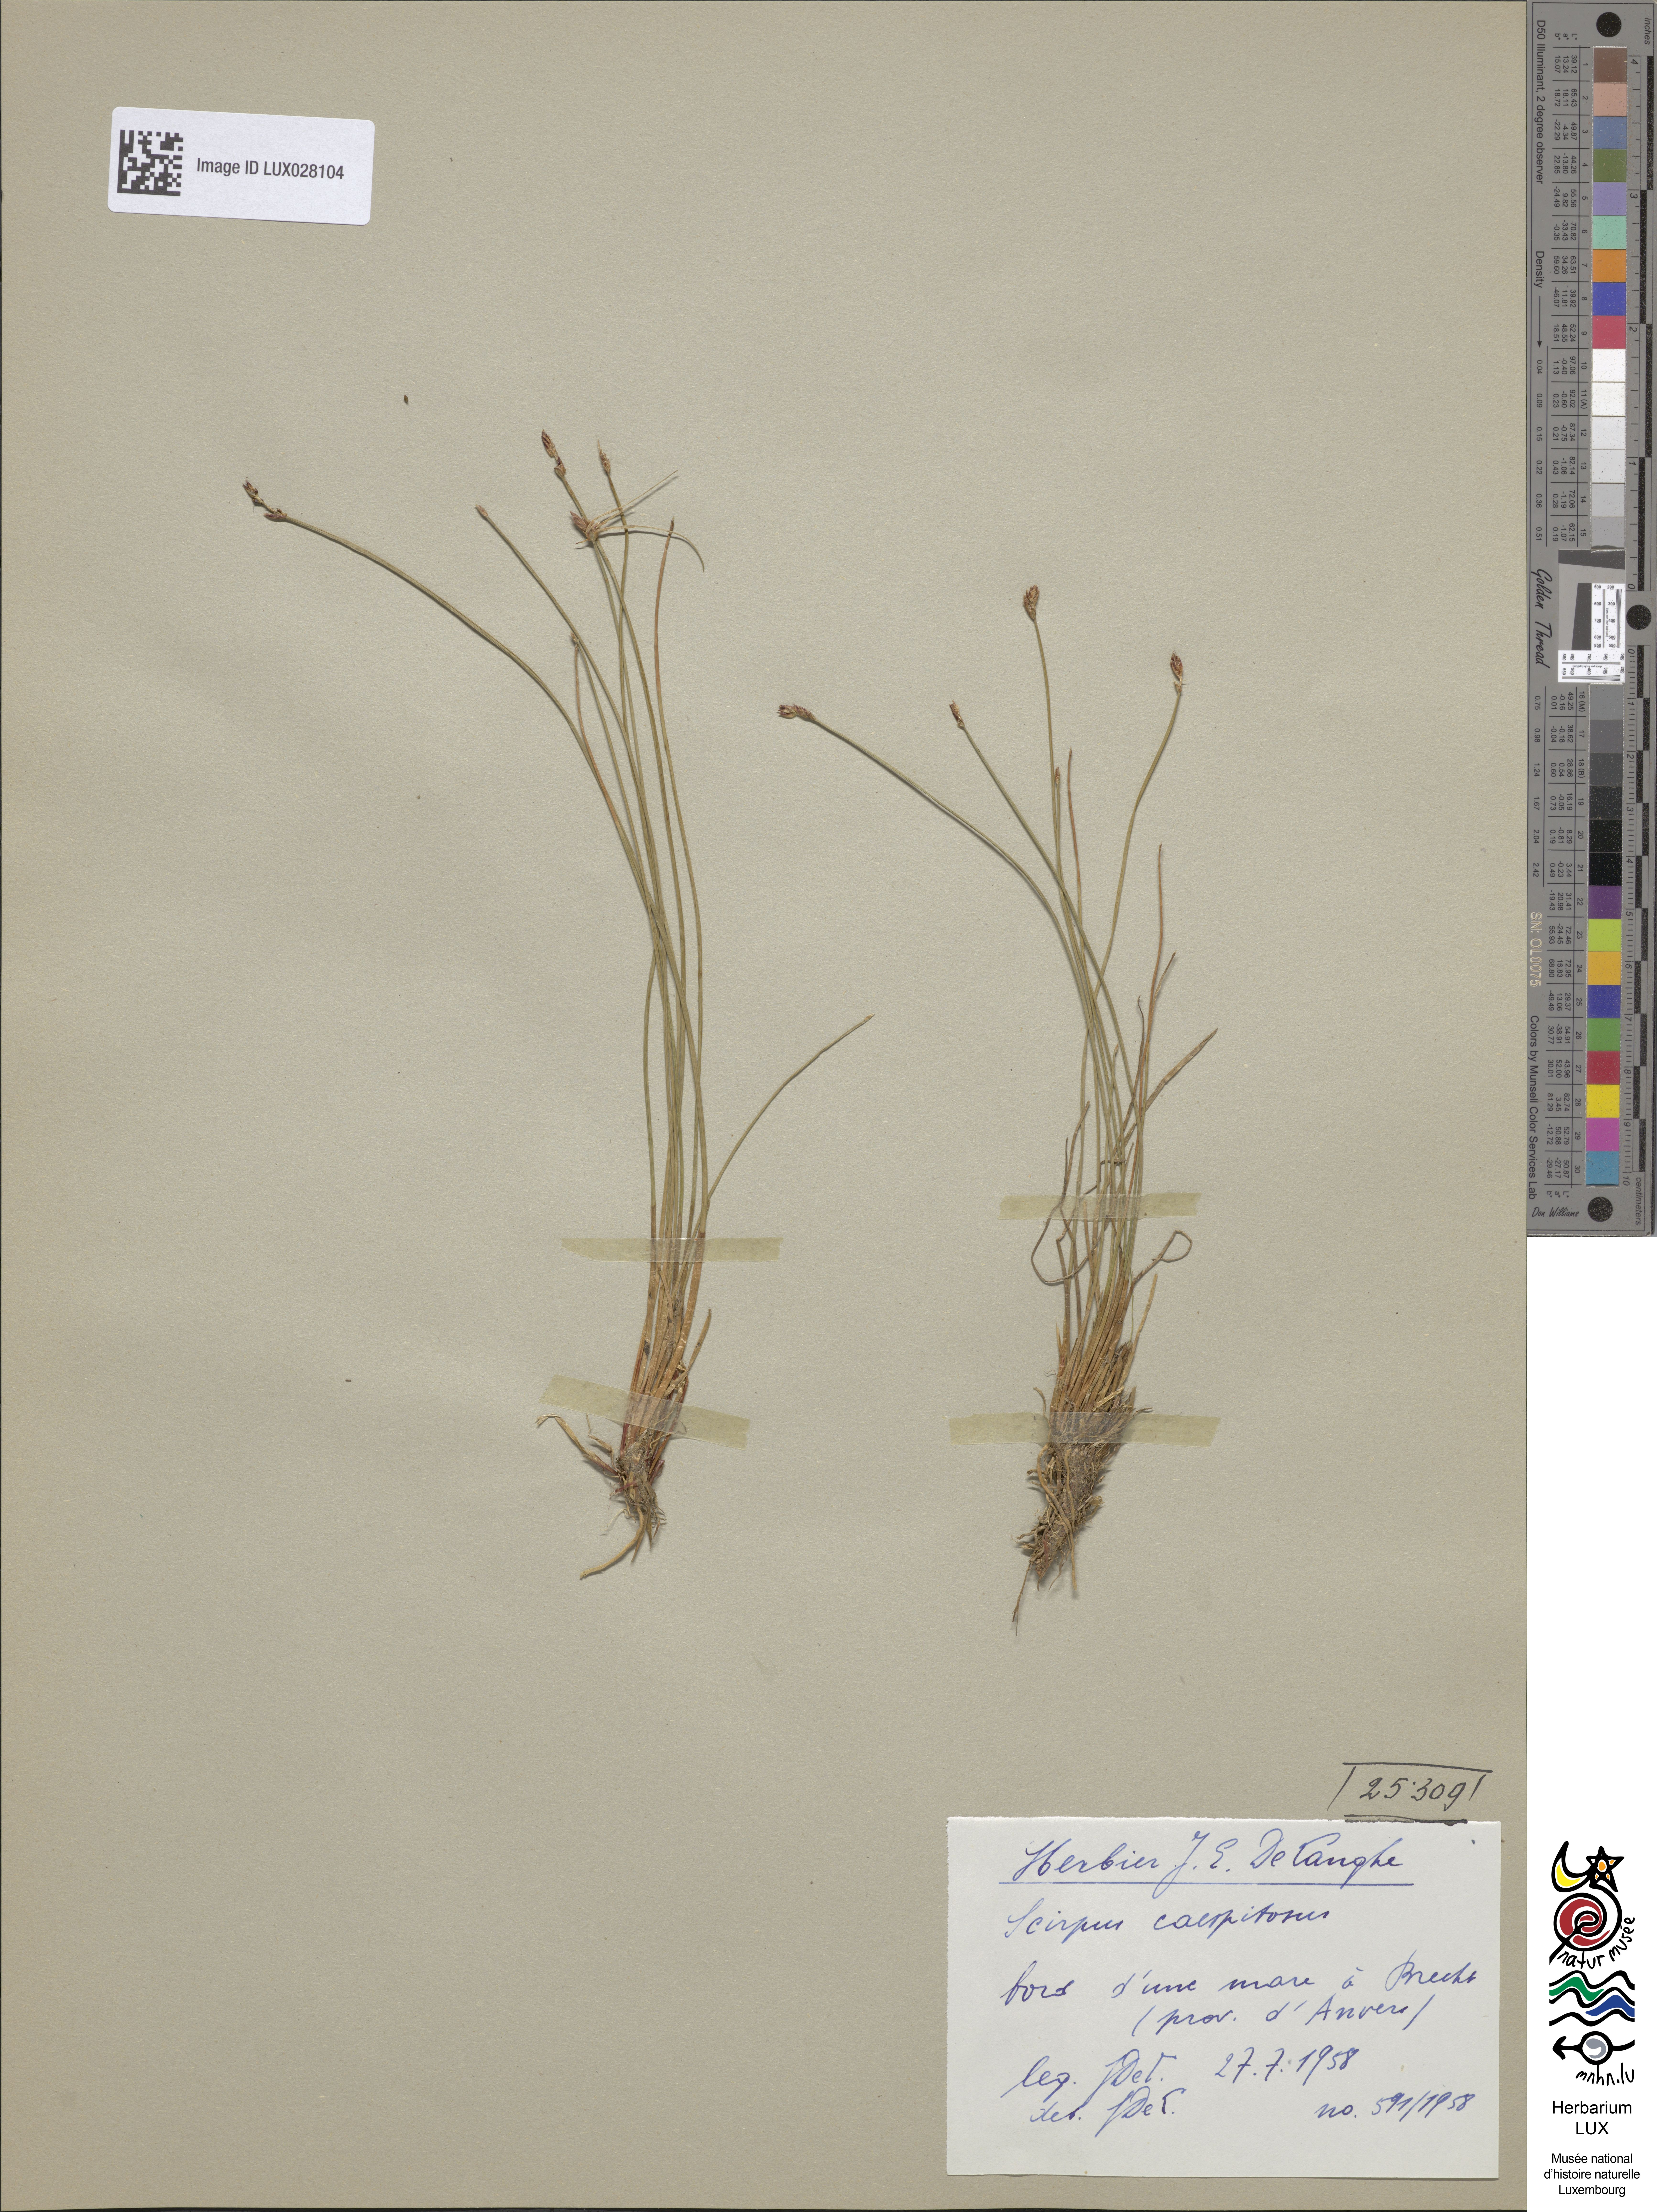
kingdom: Plantae
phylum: Tracheophyta
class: Liliopsida
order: Poales
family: Cyperaceae
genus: Trichophorum
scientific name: Trichophorum cespitosum
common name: Cespitose bulrush
